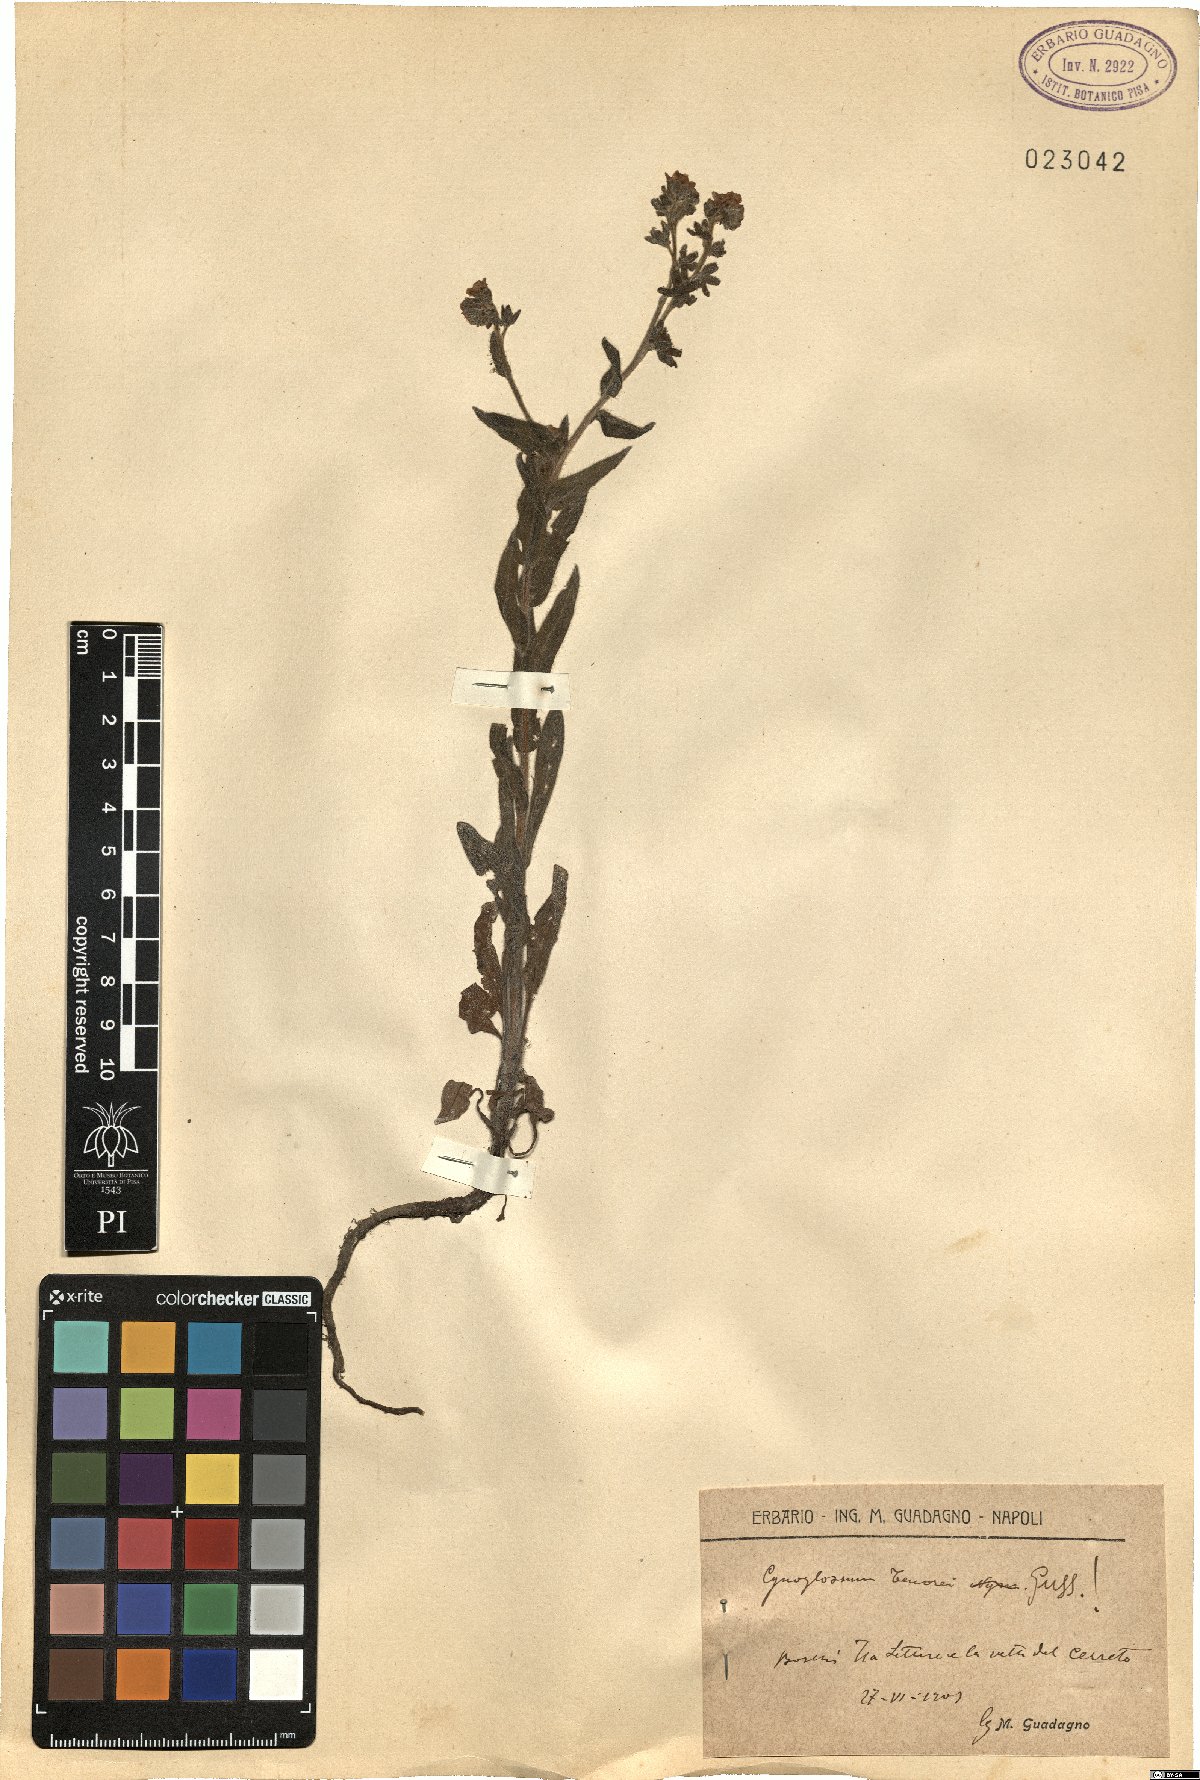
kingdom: Plantae
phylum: Tracheophyta
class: Magnoliopsida
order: Boraginales
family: Boraginaceae
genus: Cynoglossum
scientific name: Cynoglossum nebrodense
